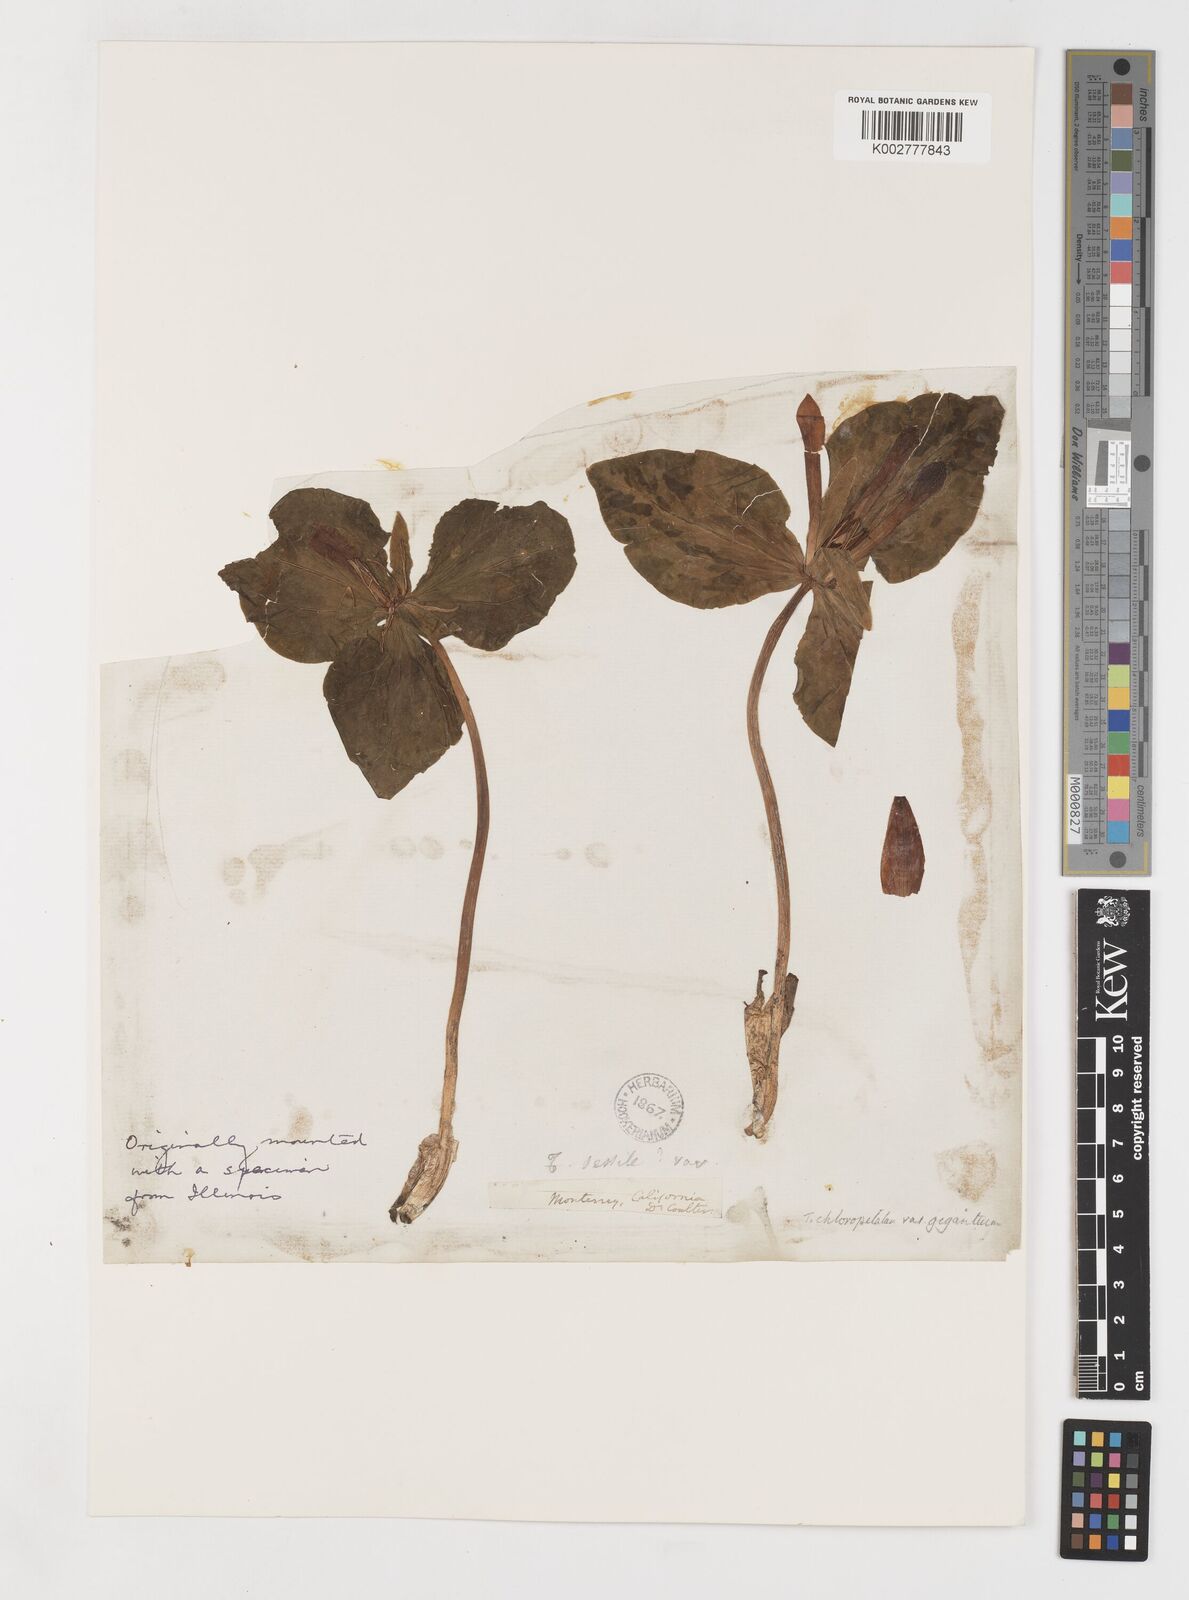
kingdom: Plantae
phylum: Tracheophyta
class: Liliopsida
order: Liliales
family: Melanthiaceae
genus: Trillium
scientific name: Trillium chloropetalum
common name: Giant trillium
